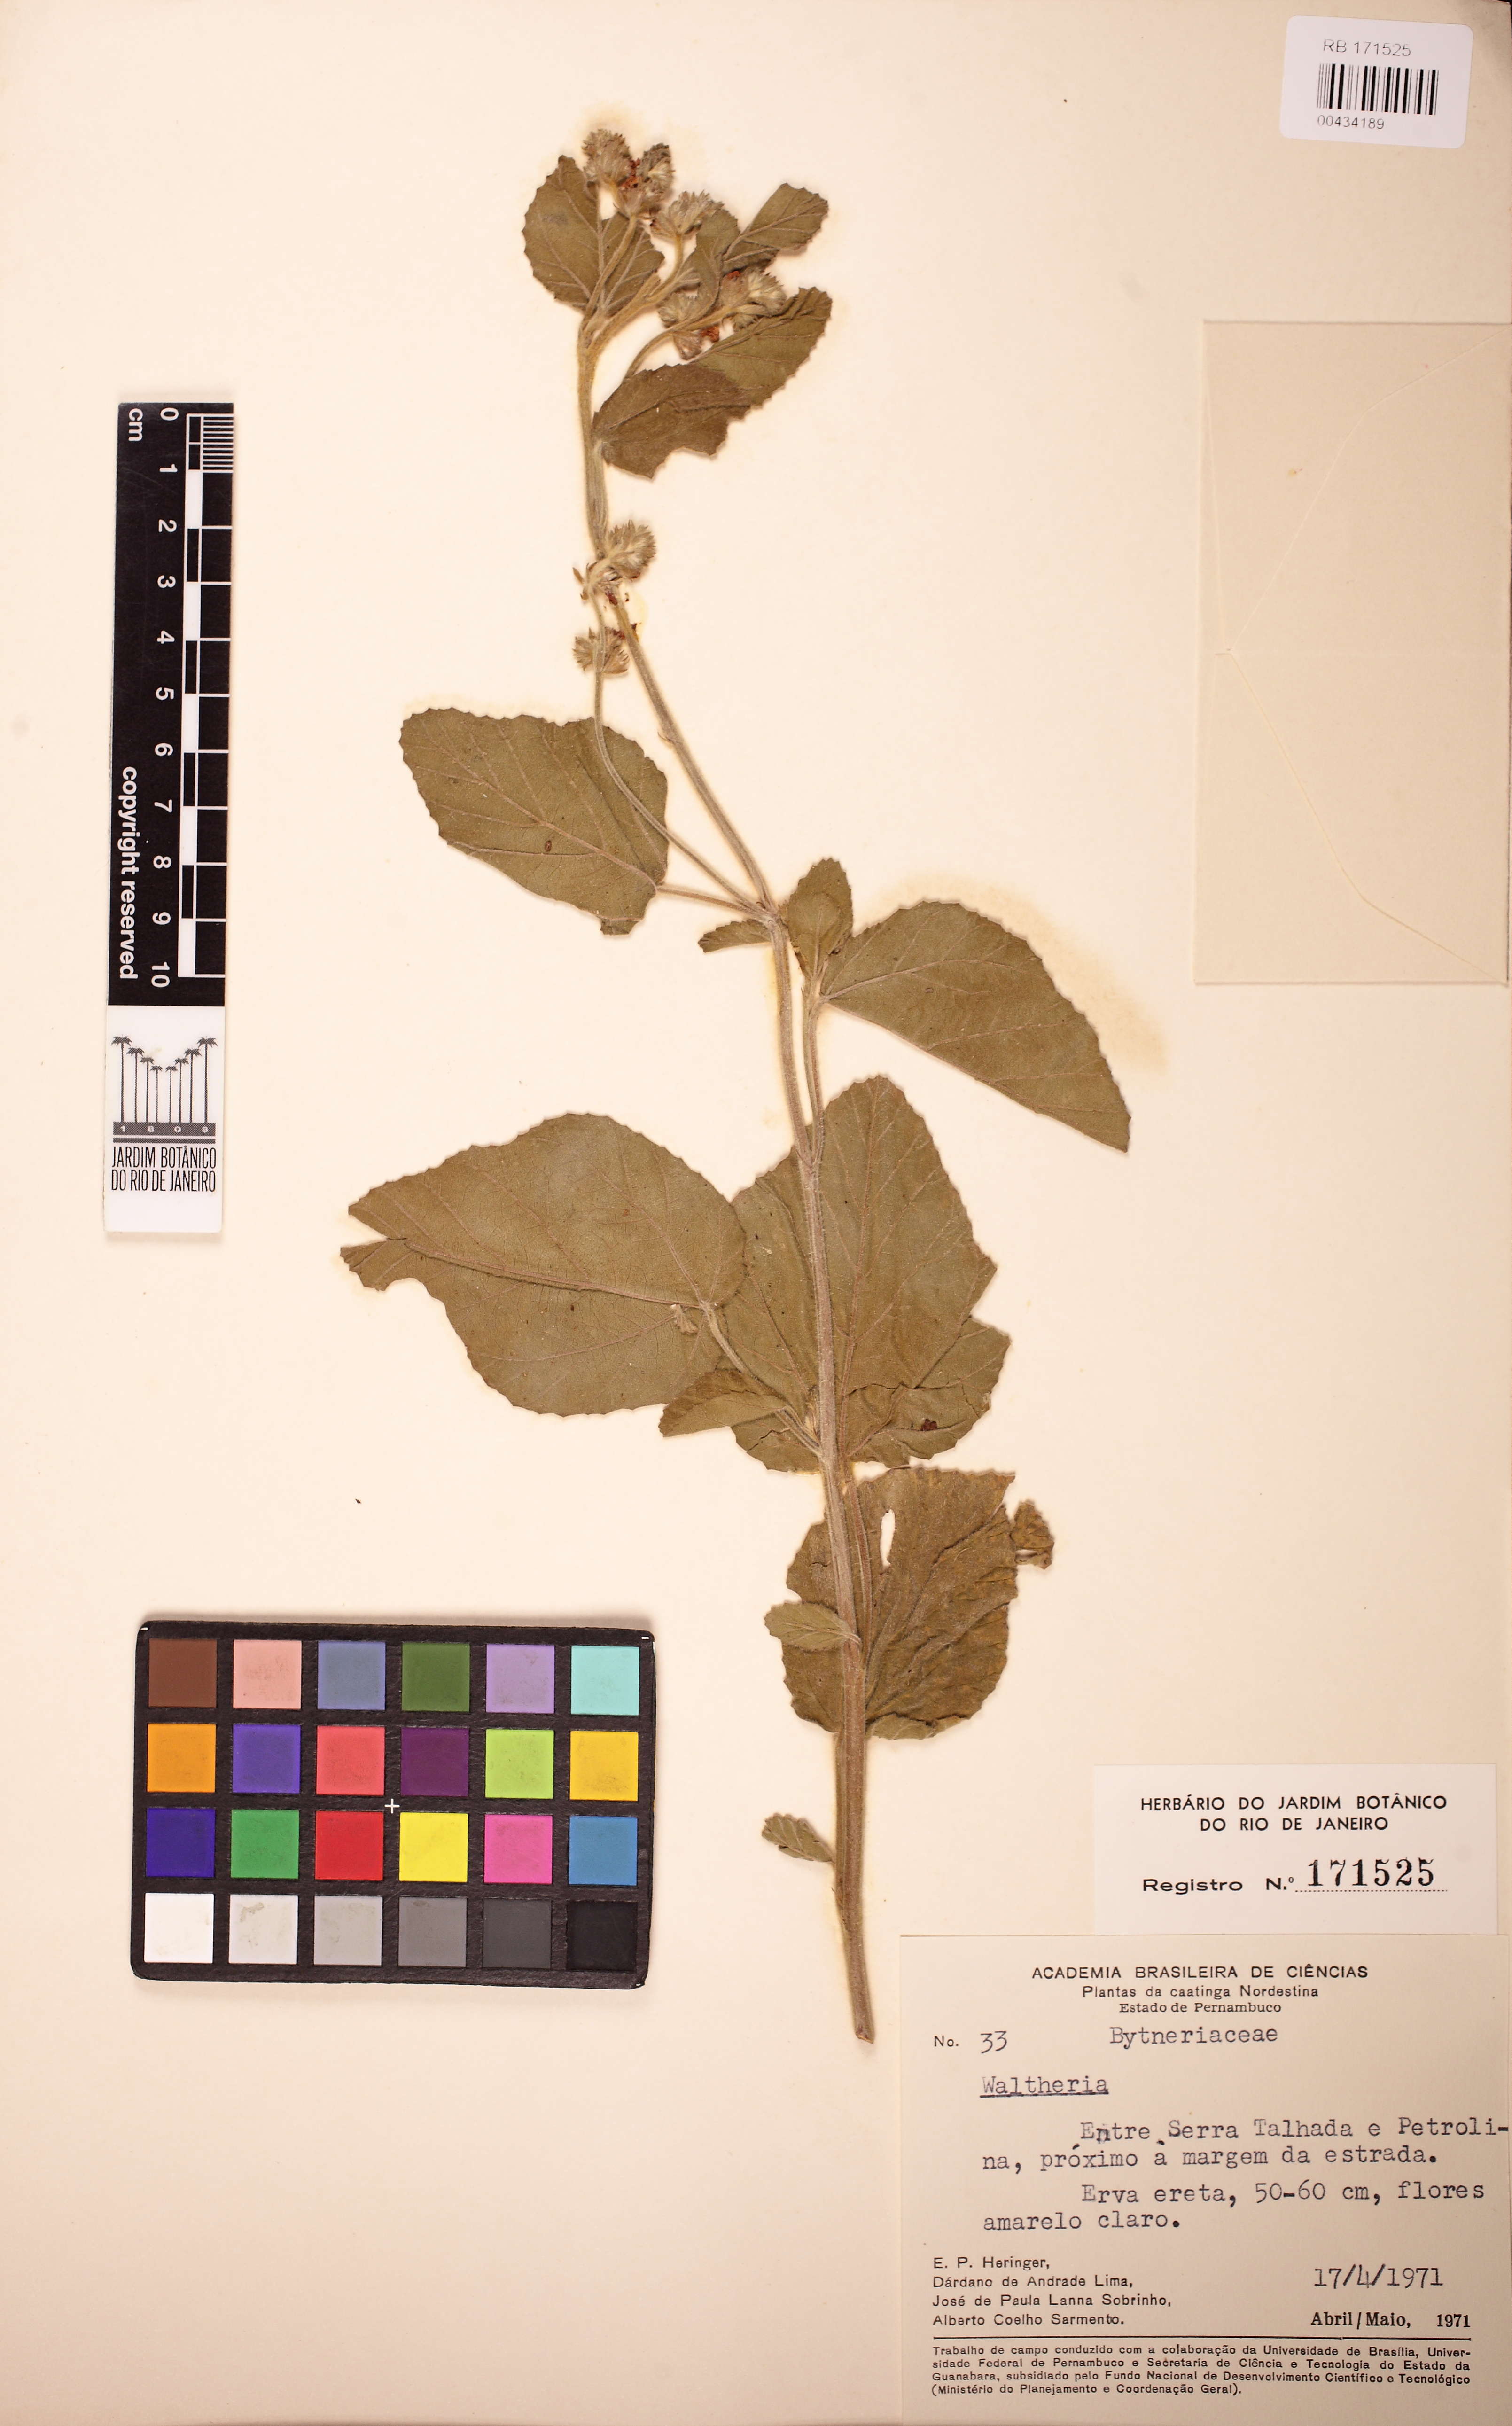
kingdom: Plantae
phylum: Tracheophyta
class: Magnoliopsida
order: Malvales
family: Malvaceae
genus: Waltheria
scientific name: Waltheria albicans
